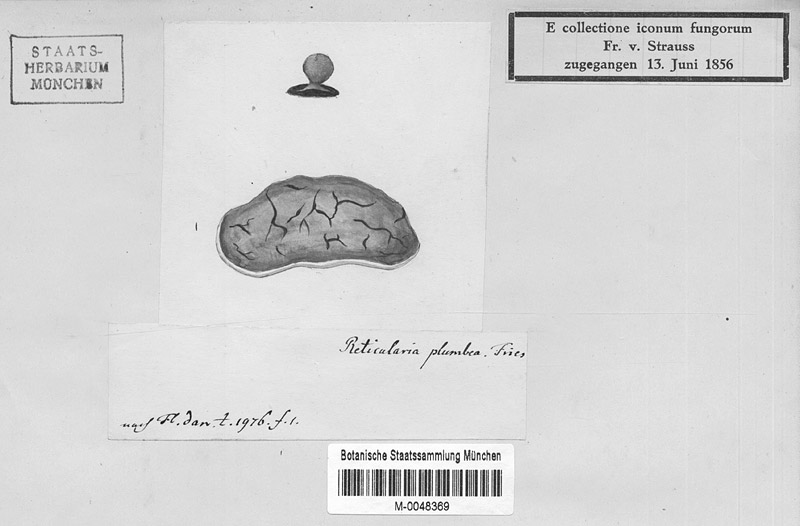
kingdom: Protozoa
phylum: Mycetozoa
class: Myxomycetes
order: Trichiales
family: Dictydiaethaliaceae
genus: Dictydiaethalium
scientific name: Dictydiaethalium plumbeum
